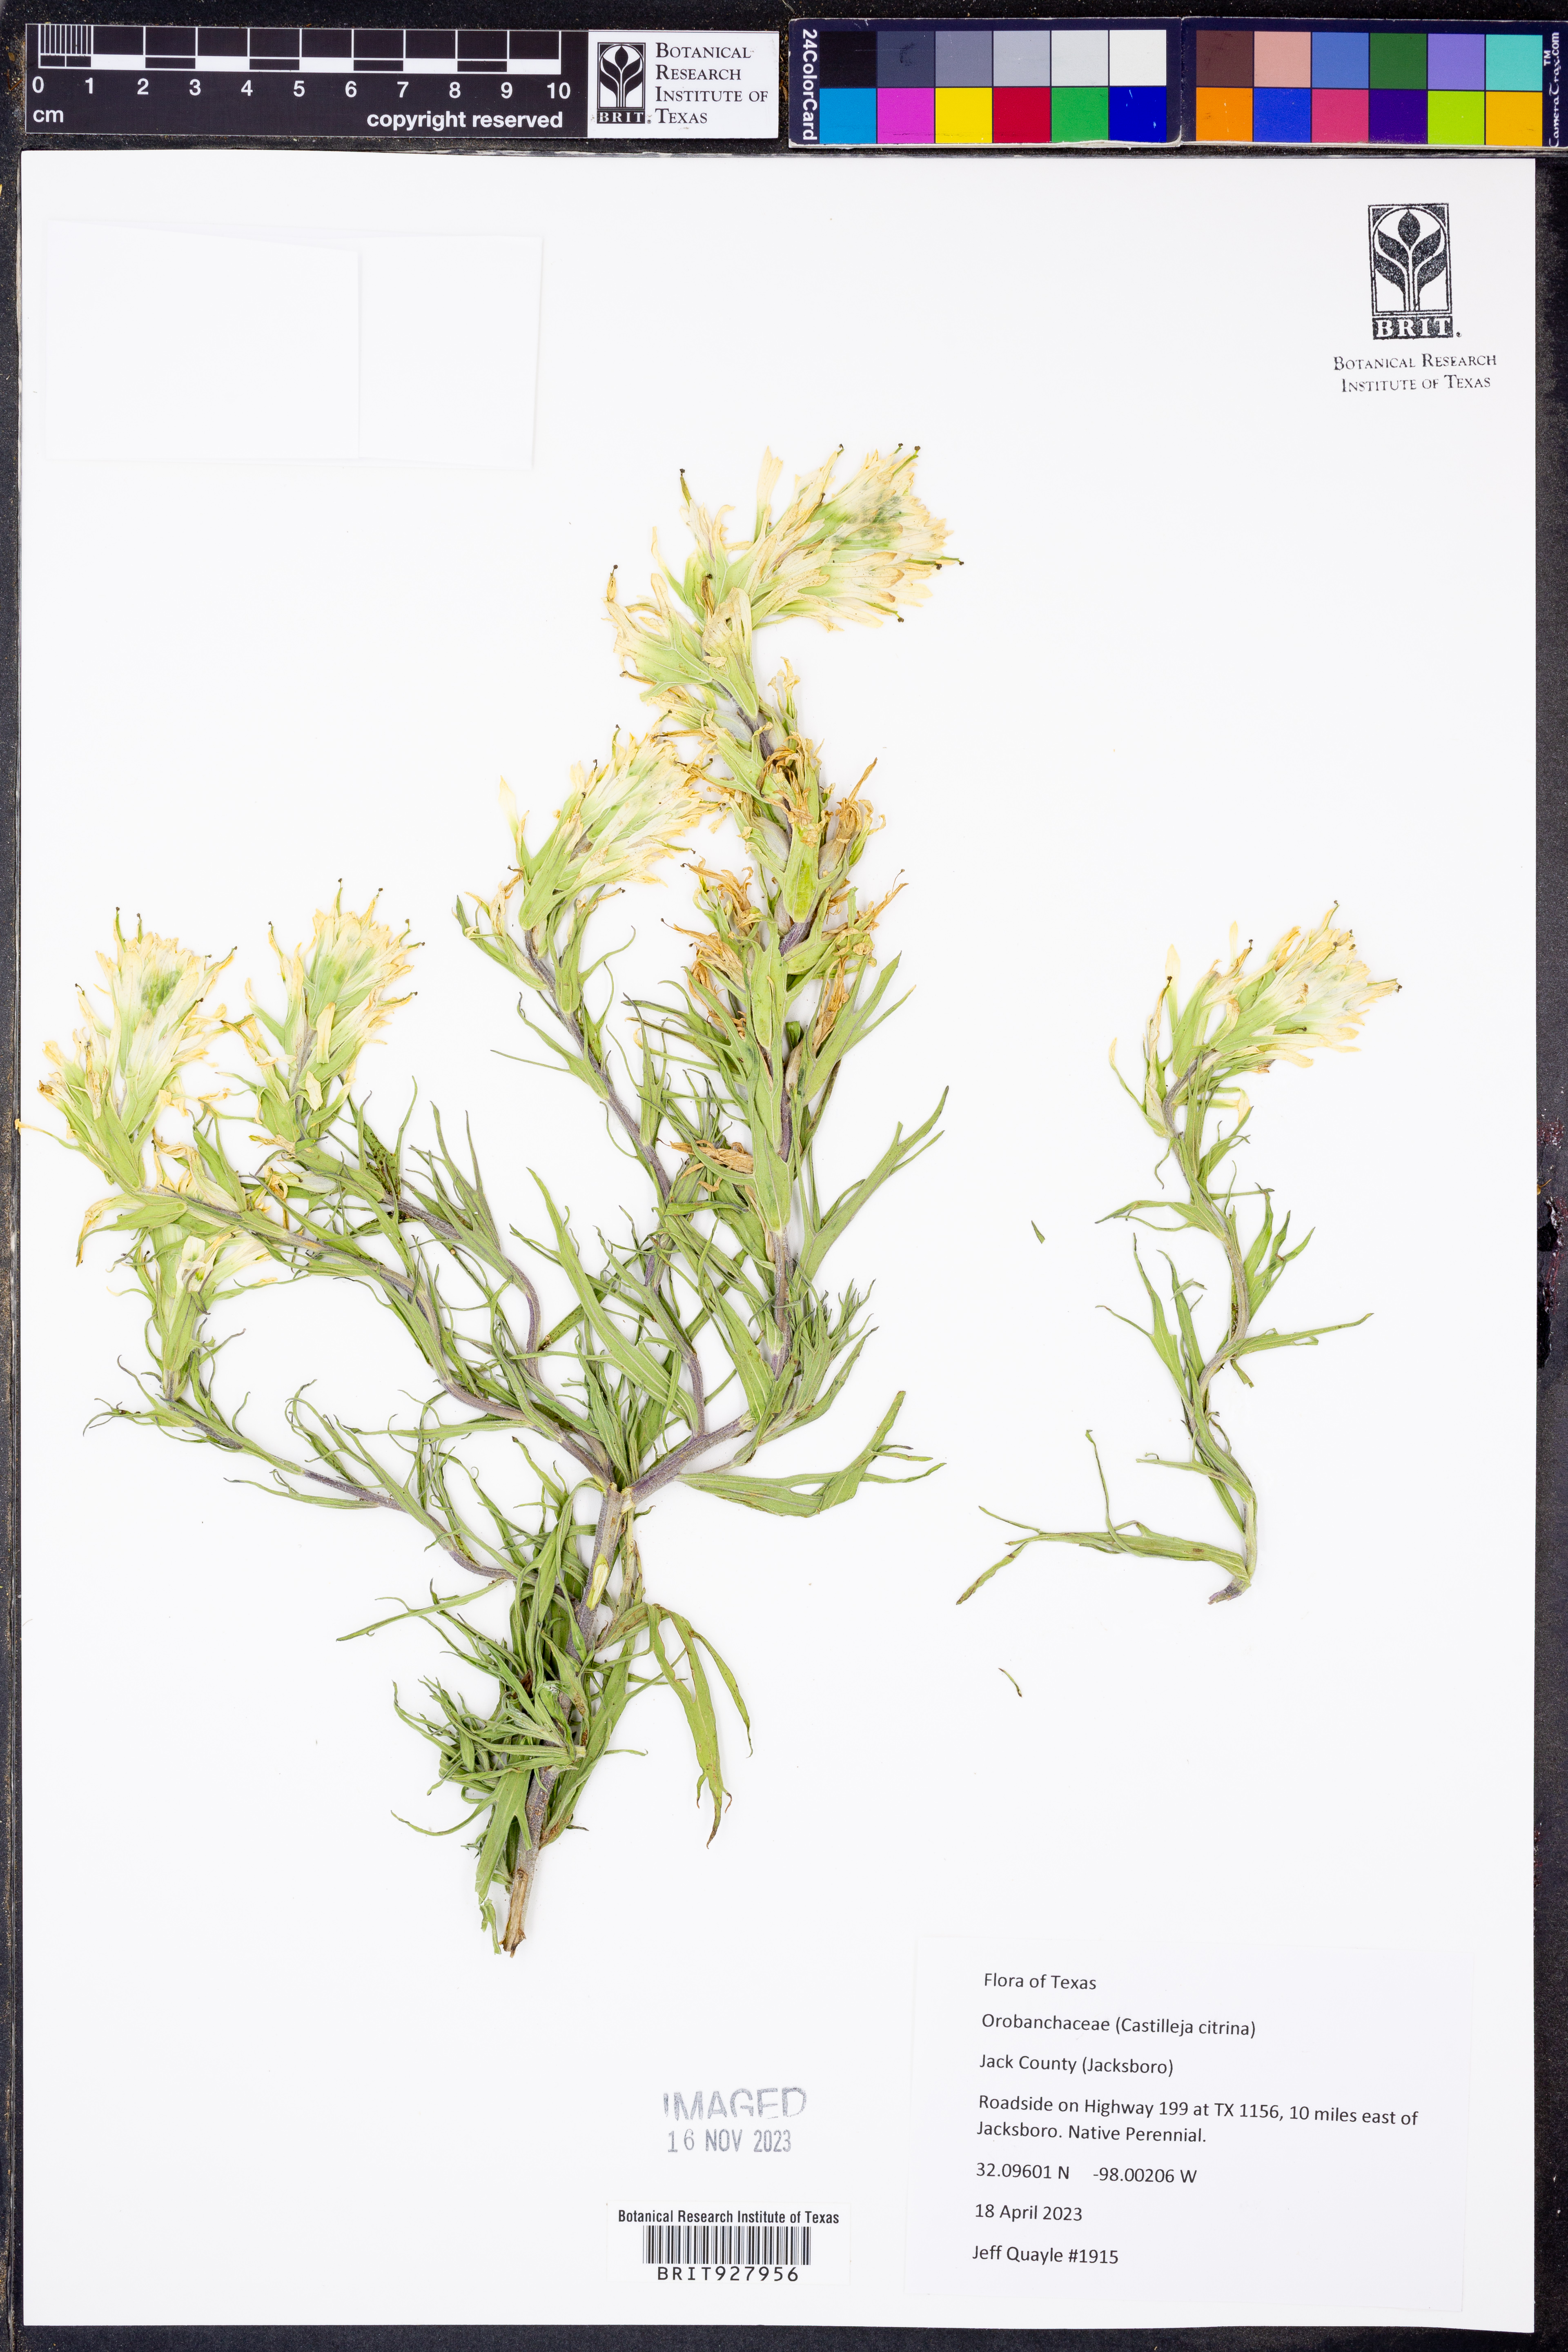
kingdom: Plantae
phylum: Tracheophyta
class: Magnoliopsida
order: Lamiales
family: Orobanchaceae
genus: Castilleja
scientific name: Castilleja citrina
